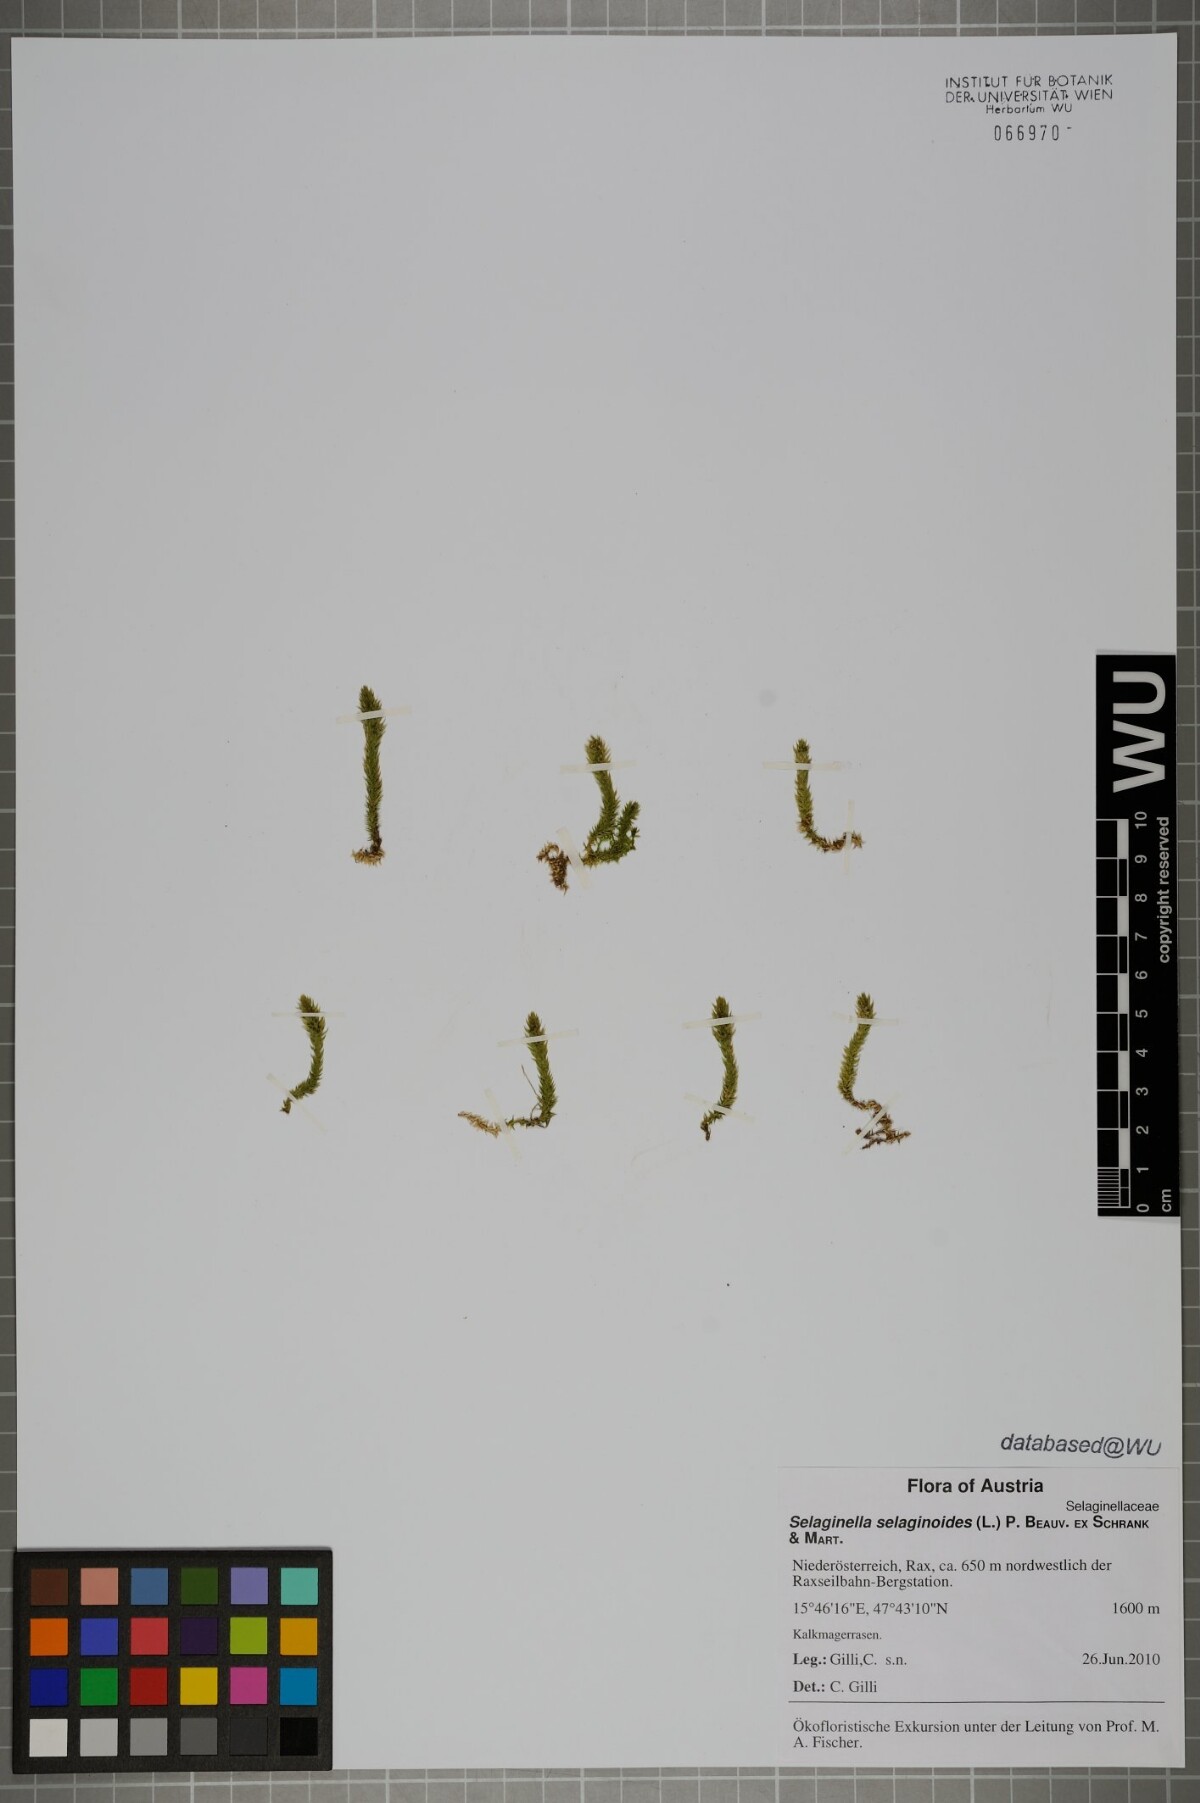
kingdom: Plantae
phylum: Tracheophyta
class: Lycopodiopsida
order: Selaginellales
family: Selaginellaceae
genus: Selaginella
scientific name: Selaginella selaginoides
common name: Prickly mountain-moss
